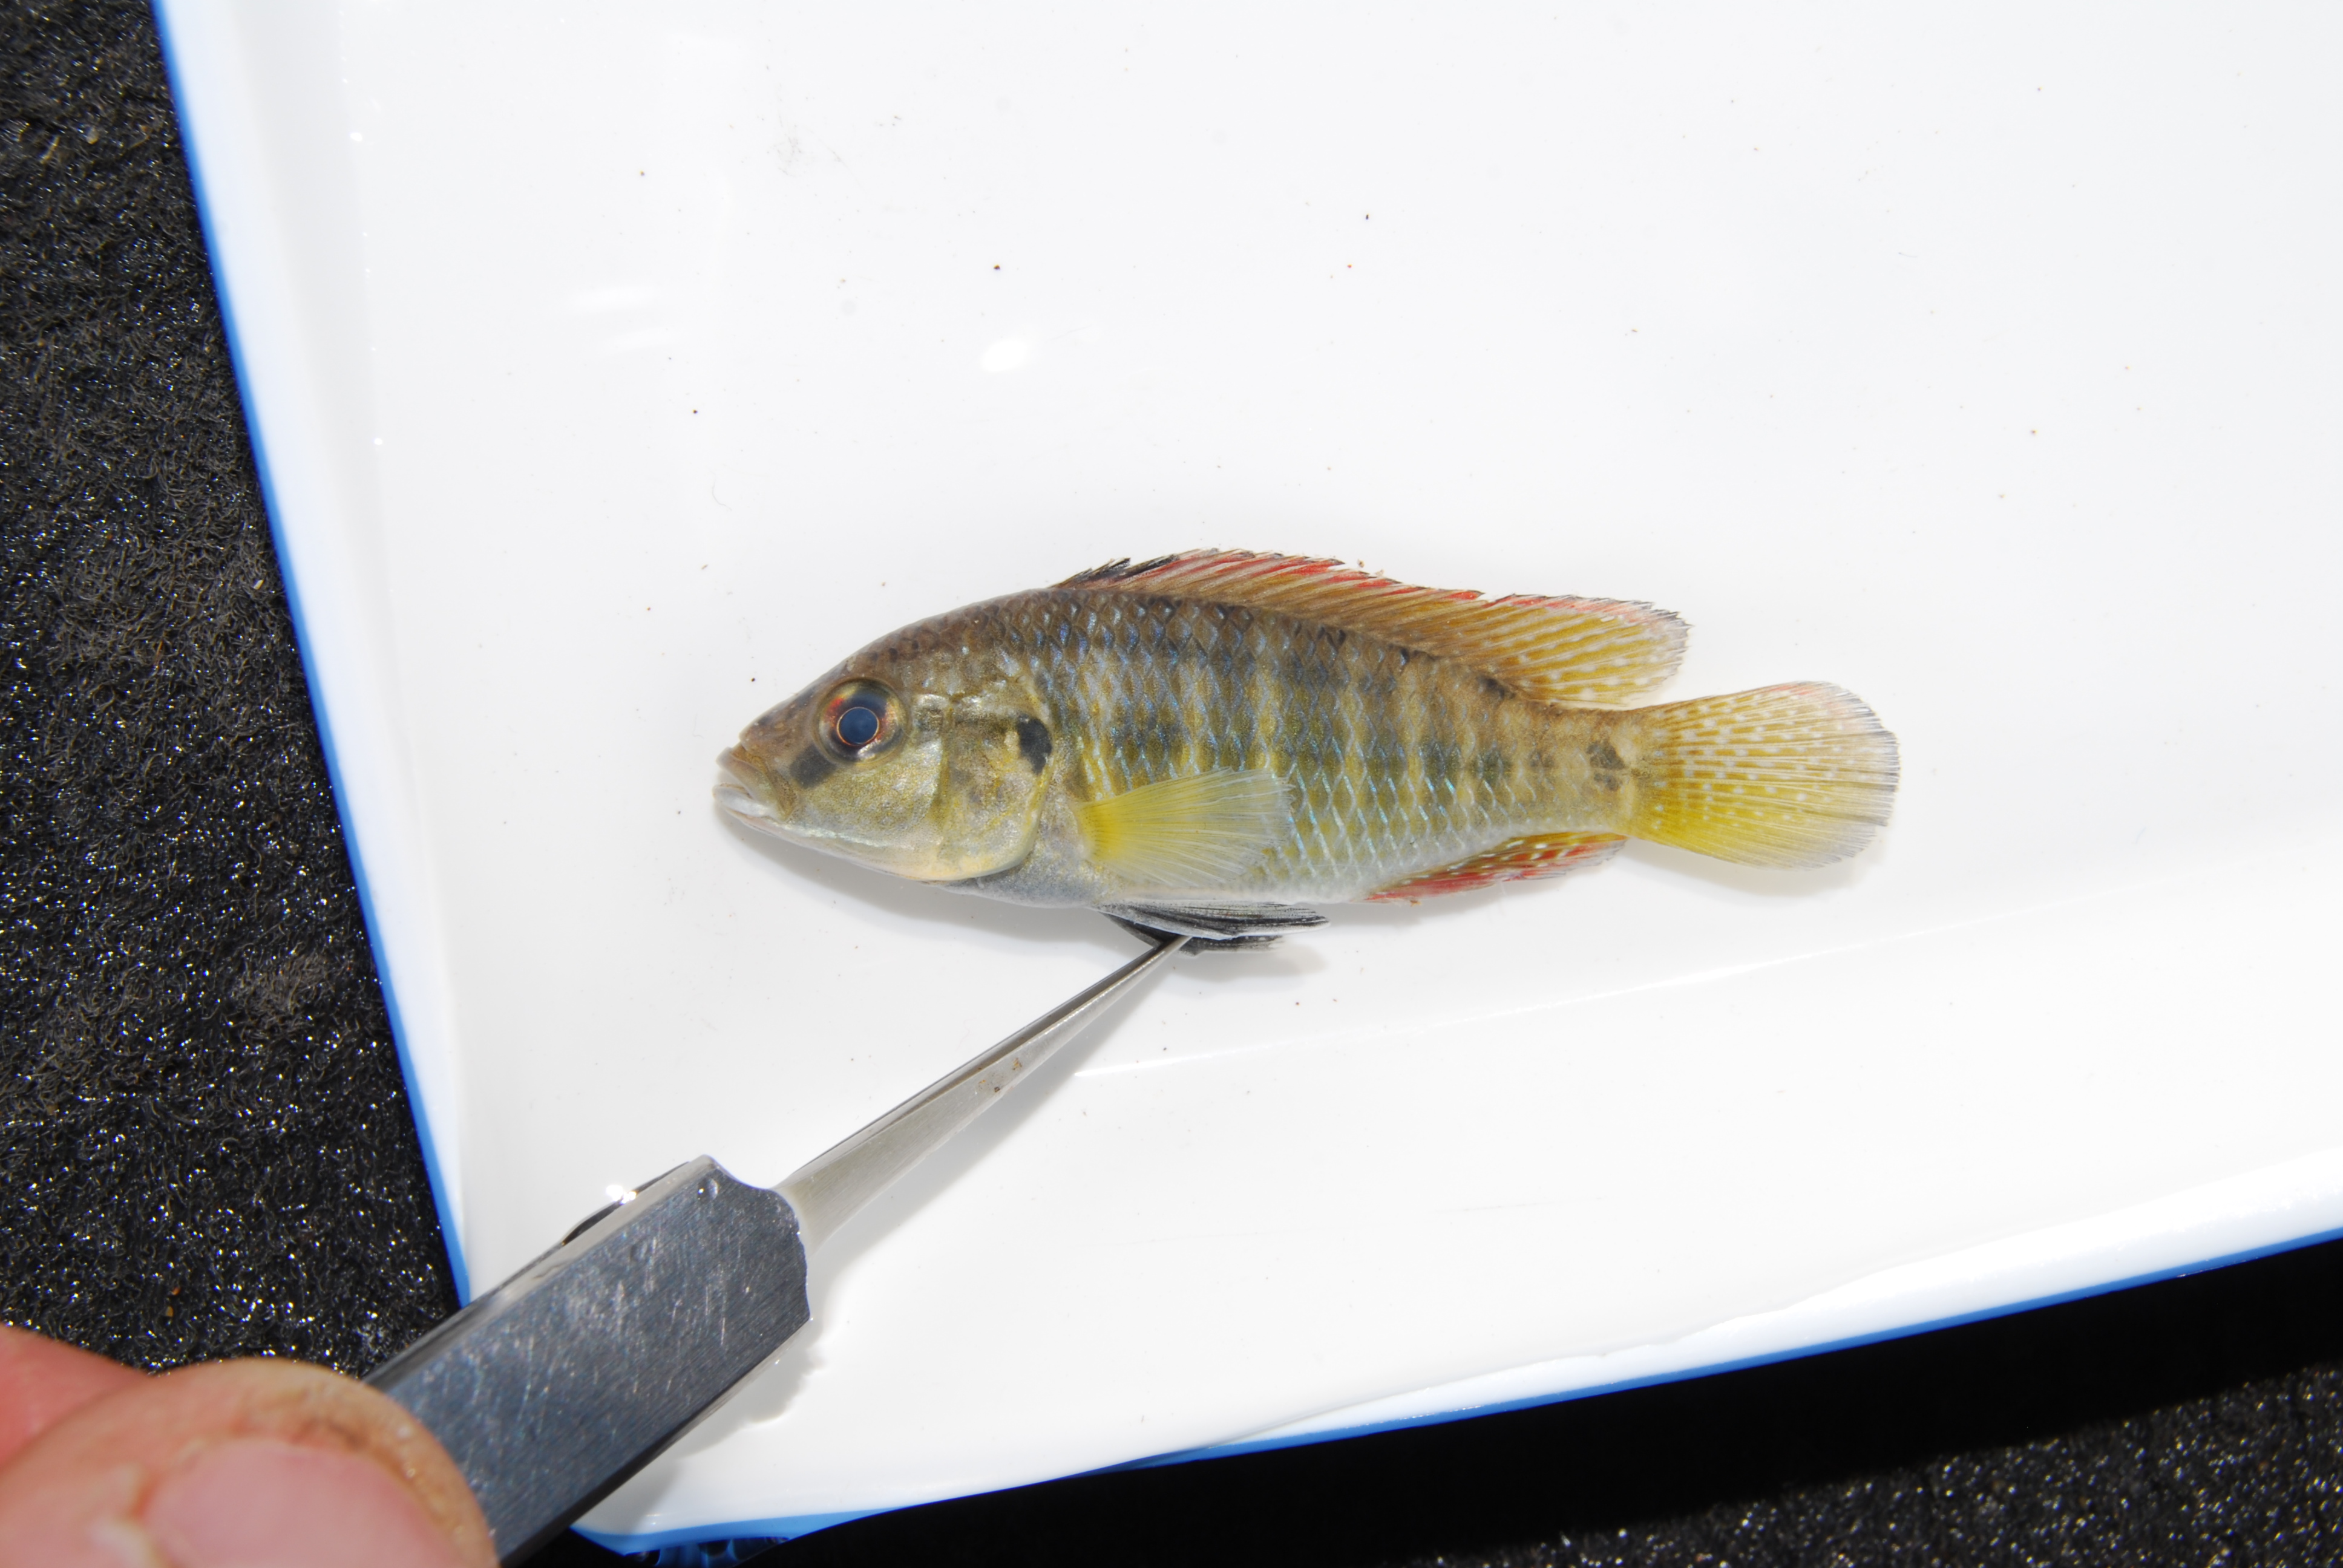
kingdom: Animalia
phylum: Chordata
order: Perciformes
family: Cichlidae
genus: Pseudocrenilabrus
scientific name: Pseudocrenilabrus philander
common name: Southern mouthbrooder
